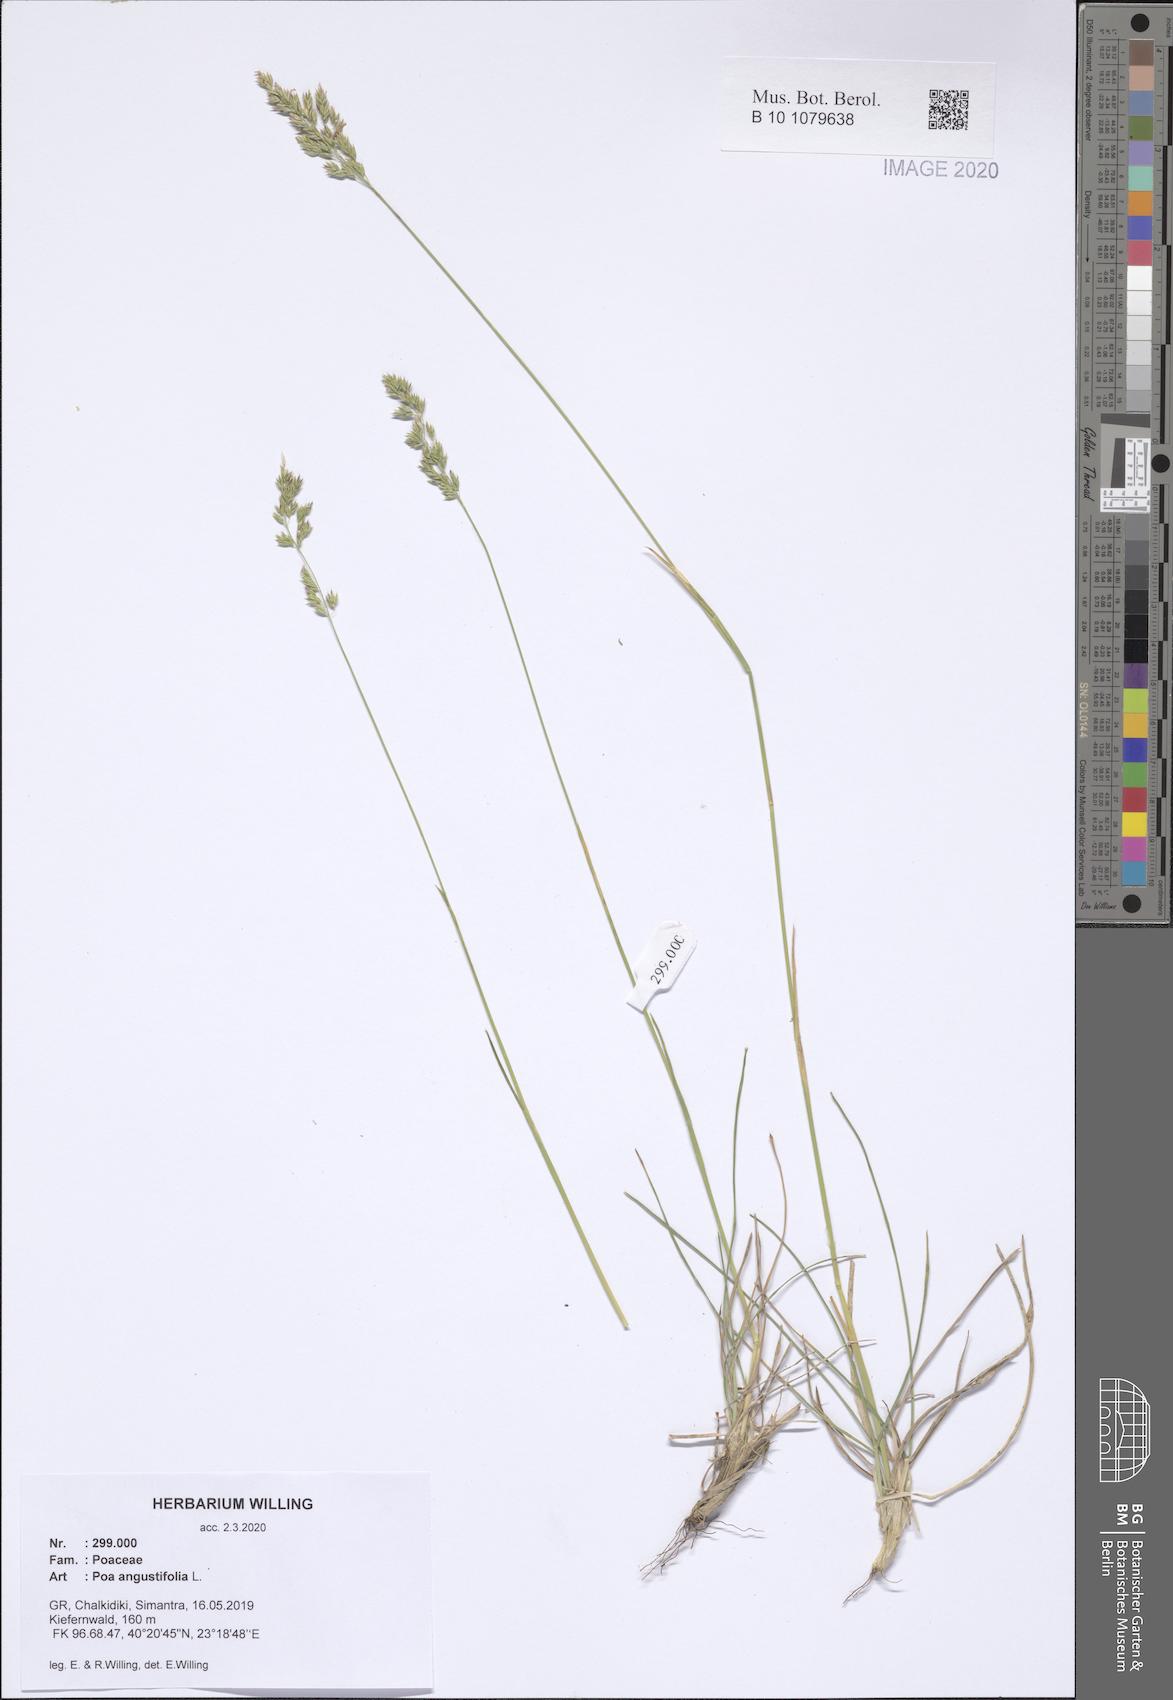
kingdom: Plantae
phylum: Tracheophyta
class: Liliopsida
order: Poales
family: Poaceae
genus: Poa
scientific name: Poa angustifolia
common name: Narrow-leaved meadow-grass
